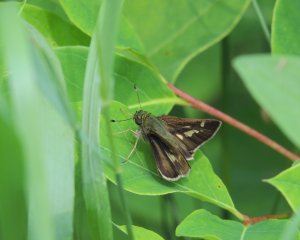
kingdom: Animalia
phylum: Arthropoda
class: Insecta
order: Lepidoptera
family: Hesperiidae
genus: Vernia
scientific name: Vernia verna
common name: Little Glassywing
